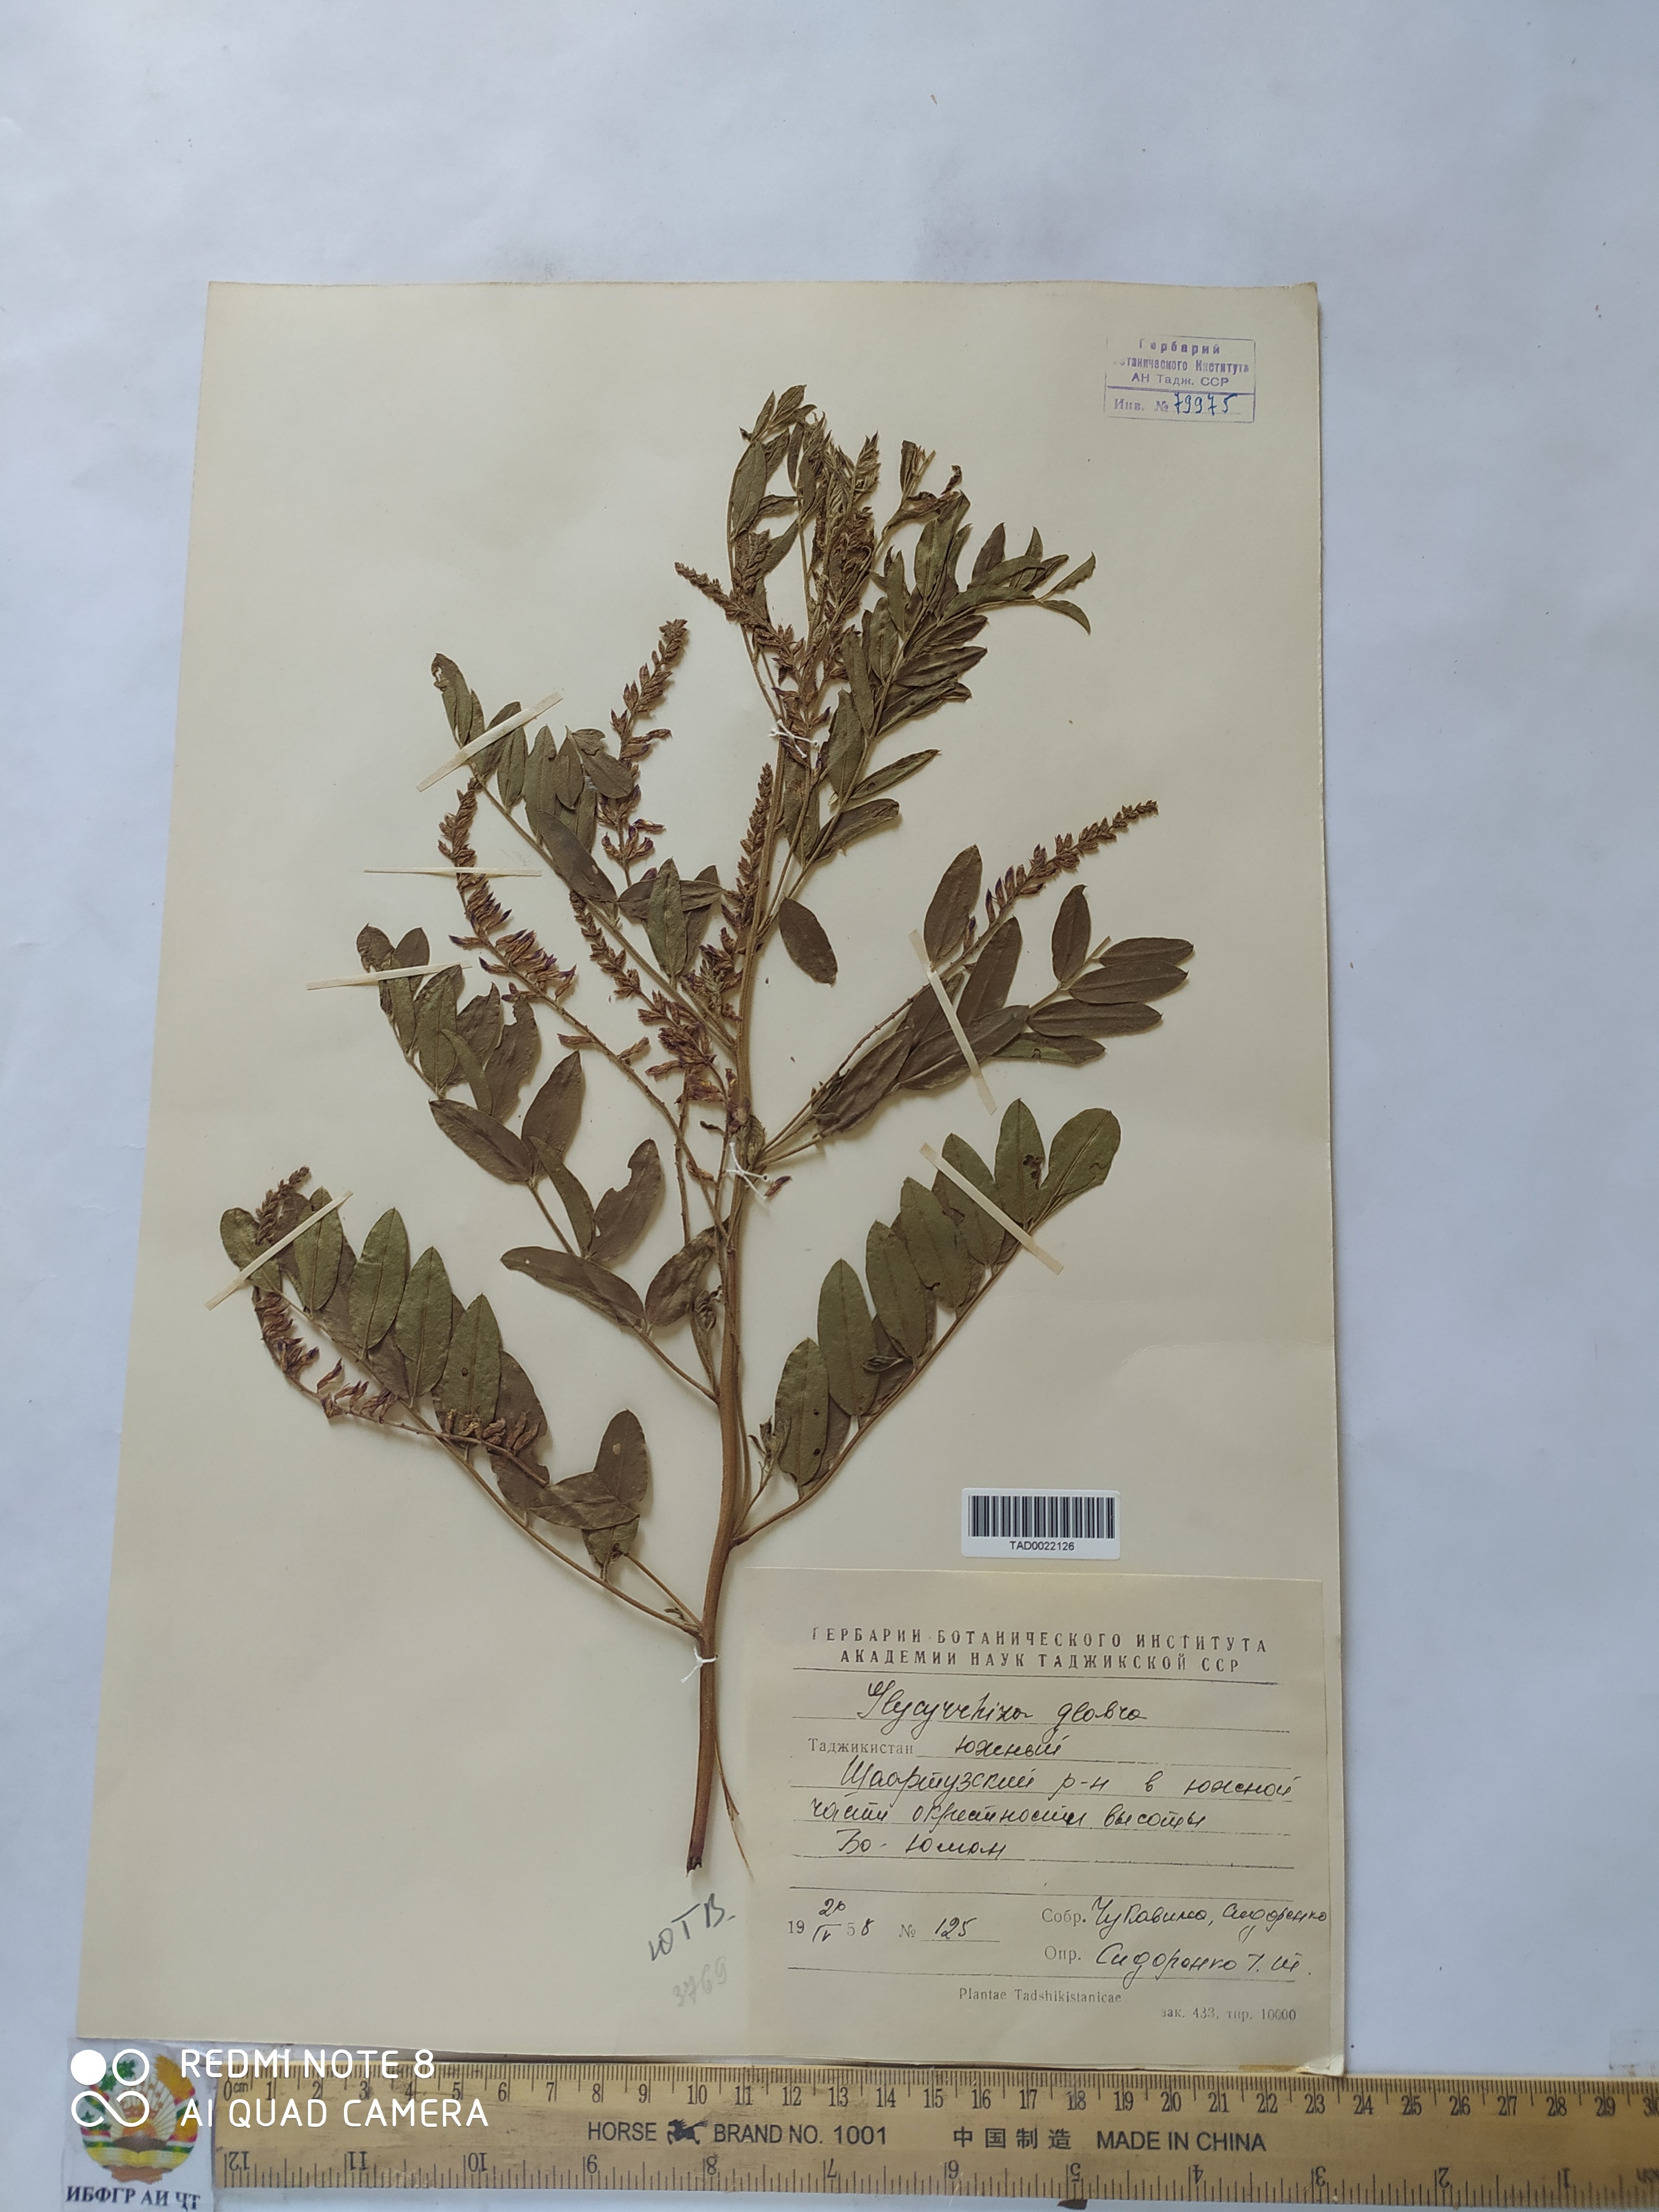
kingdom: Plantae
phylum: Tracheophyta
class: Magnoliopsida
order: Fabales
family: Fabaceae
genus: Glycyrrhiza
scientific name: Glycyrrhiza glabra
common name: Liquorice
